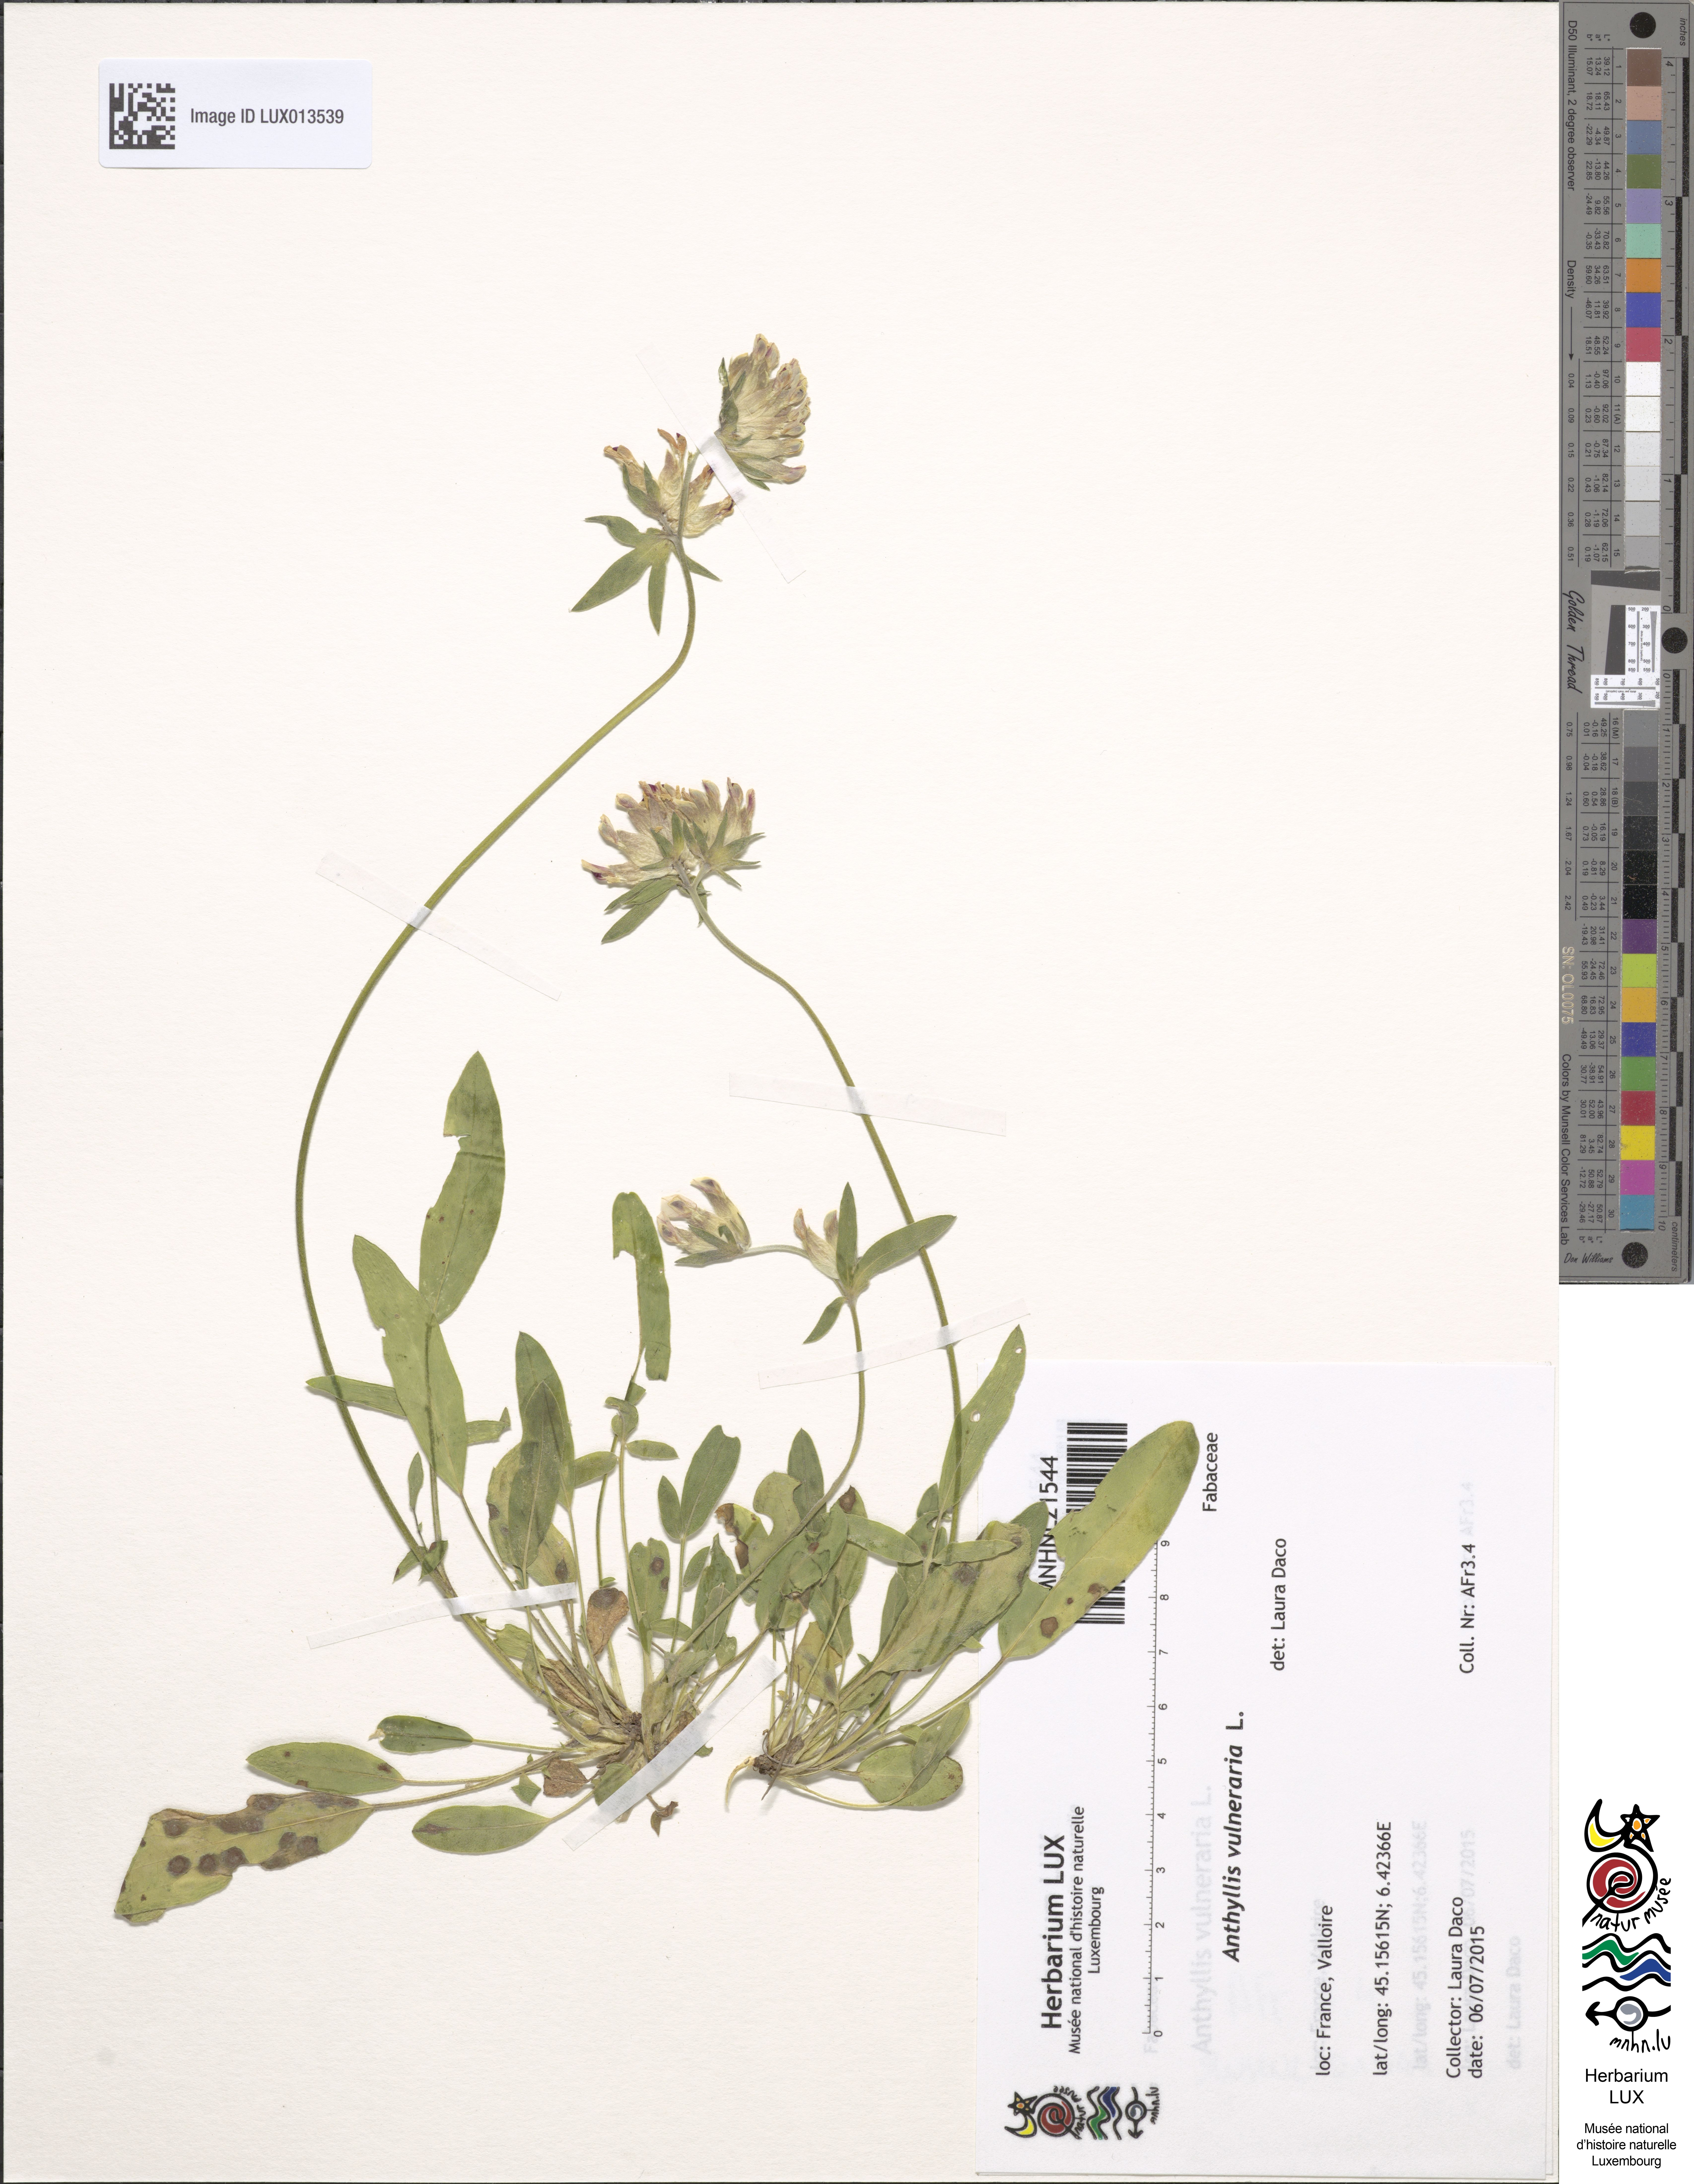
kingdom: Plantae
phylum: Tracheophyta
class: Magnoliopsida
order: Fabales
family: Fabaceae
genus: Anthyllis
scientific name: Anthyllis vulneraria
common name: Kidney vetch
